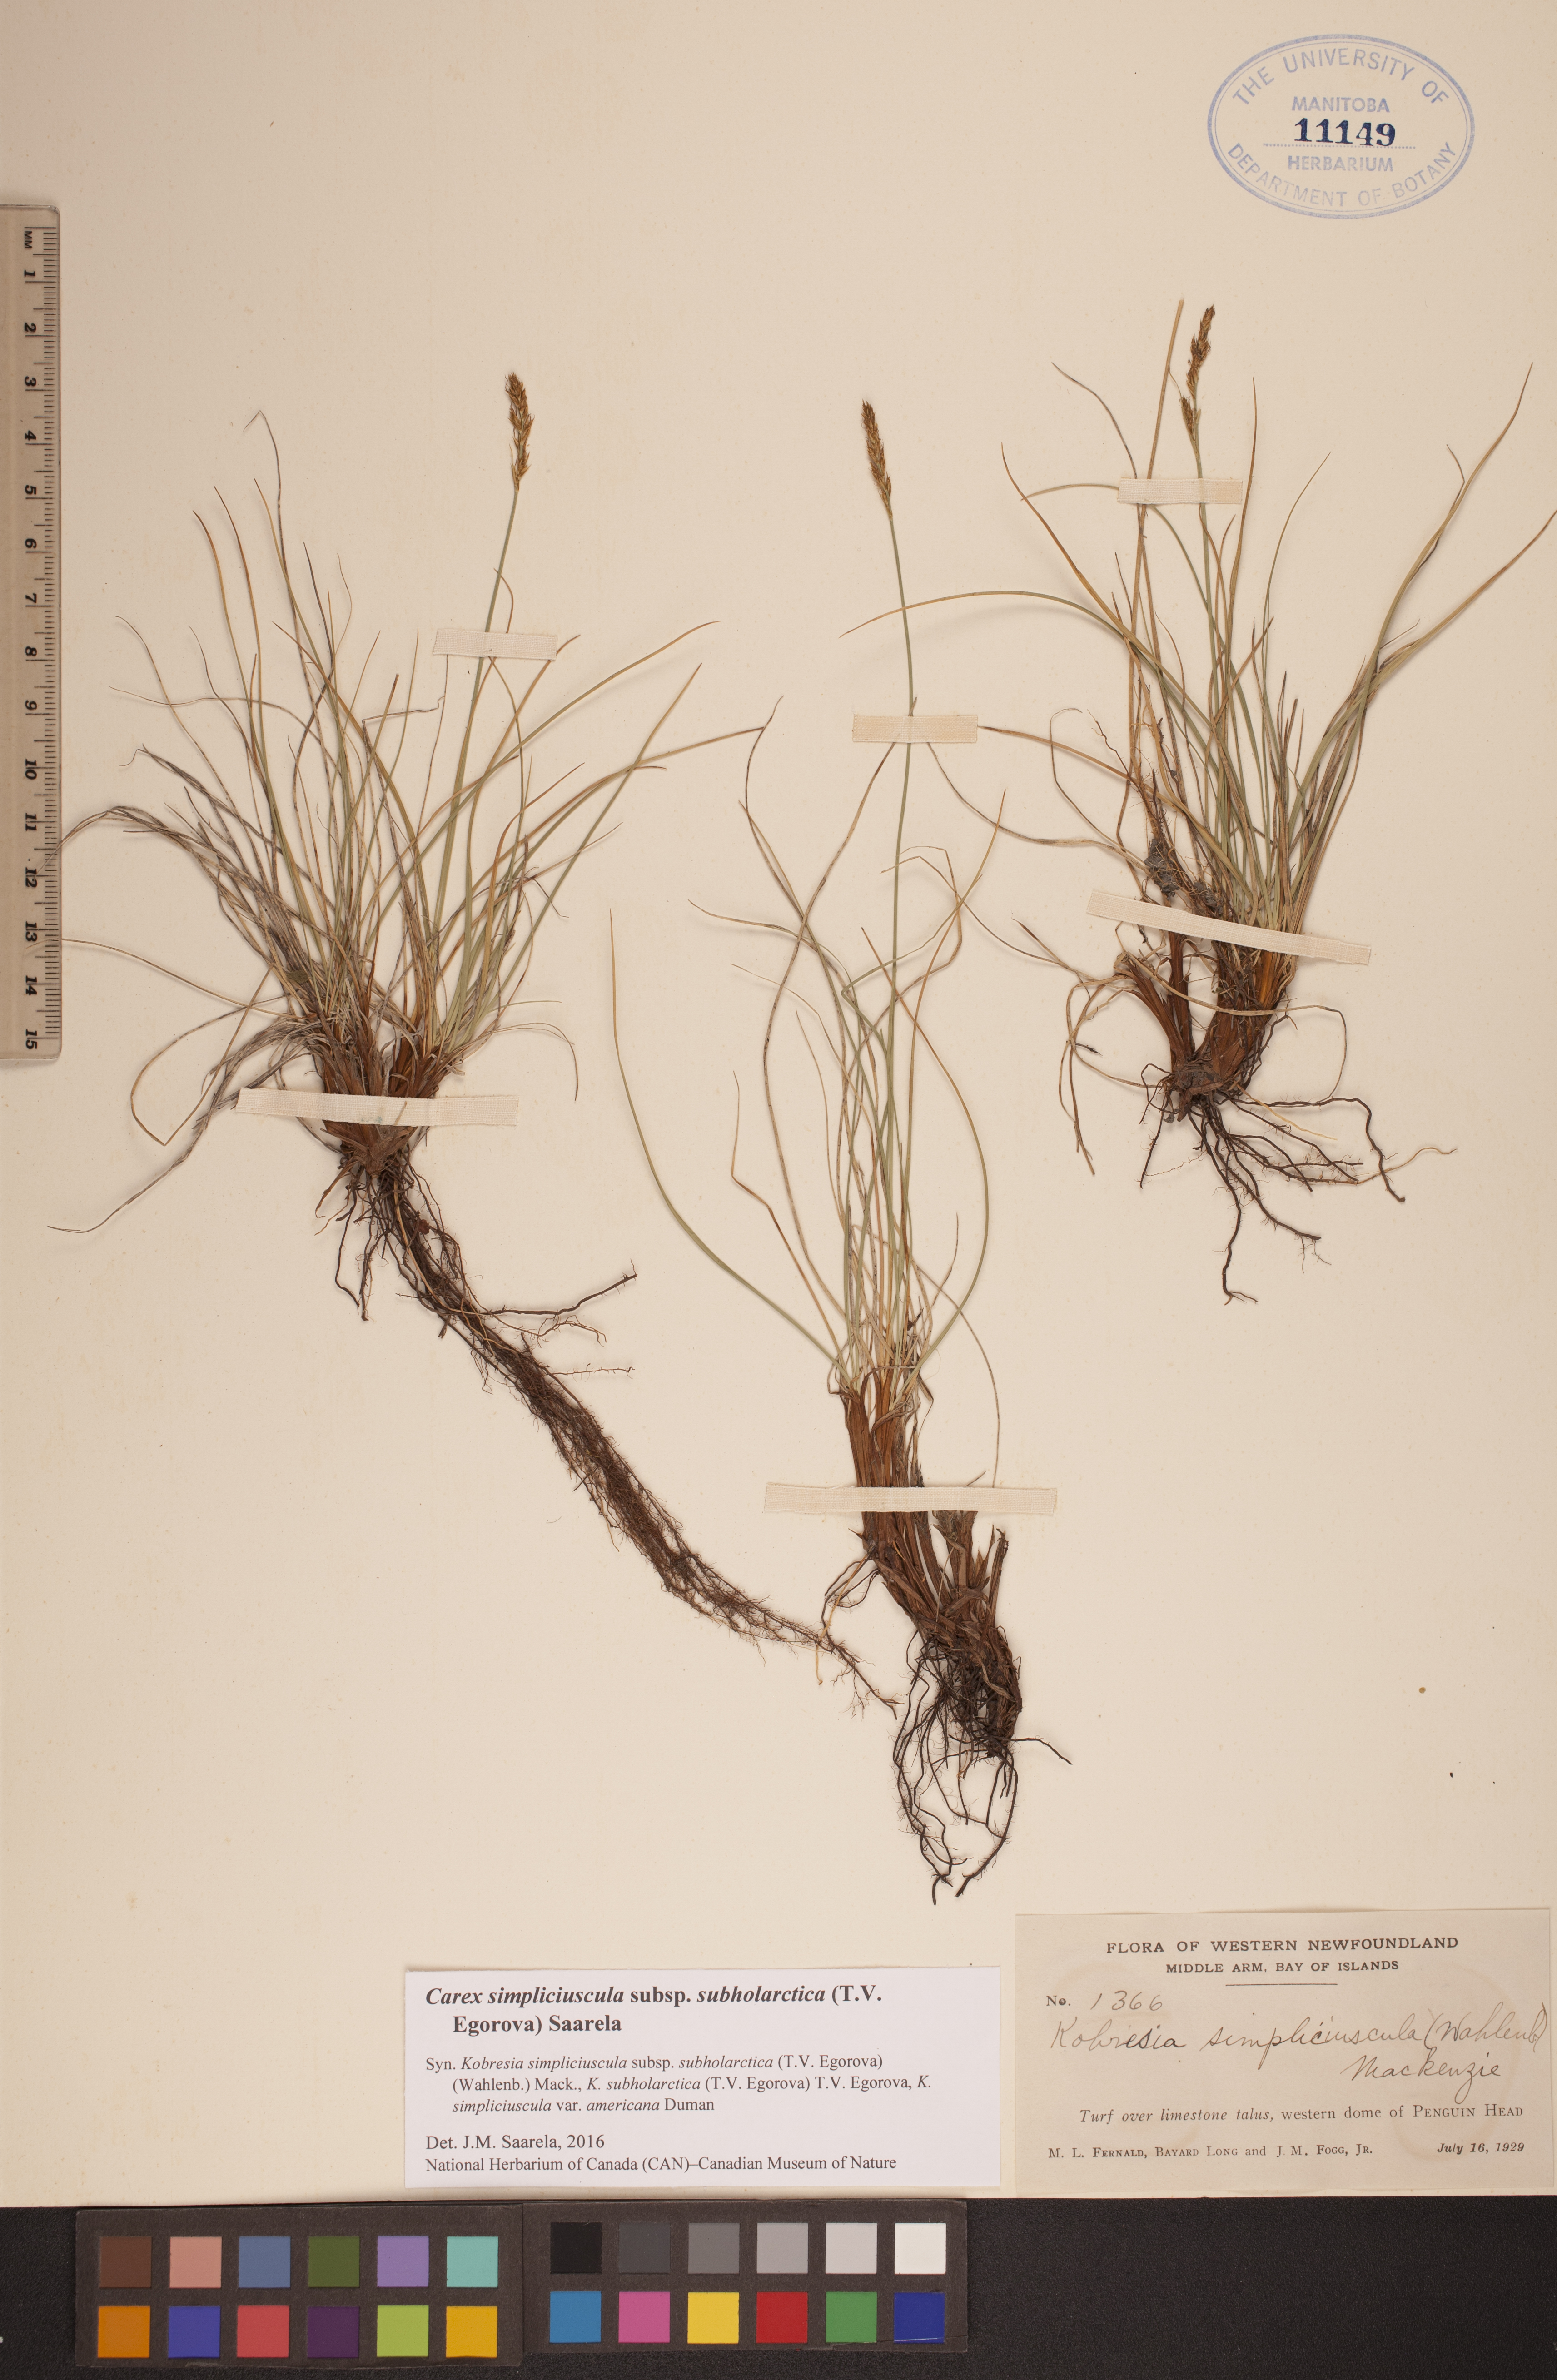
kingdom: Plantae
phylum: Tracheophyta
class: Liliopsida
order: Poales
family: Cyperaceae
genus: Carex
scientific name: Carex simpliciuscula
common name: Simple bog sedge
